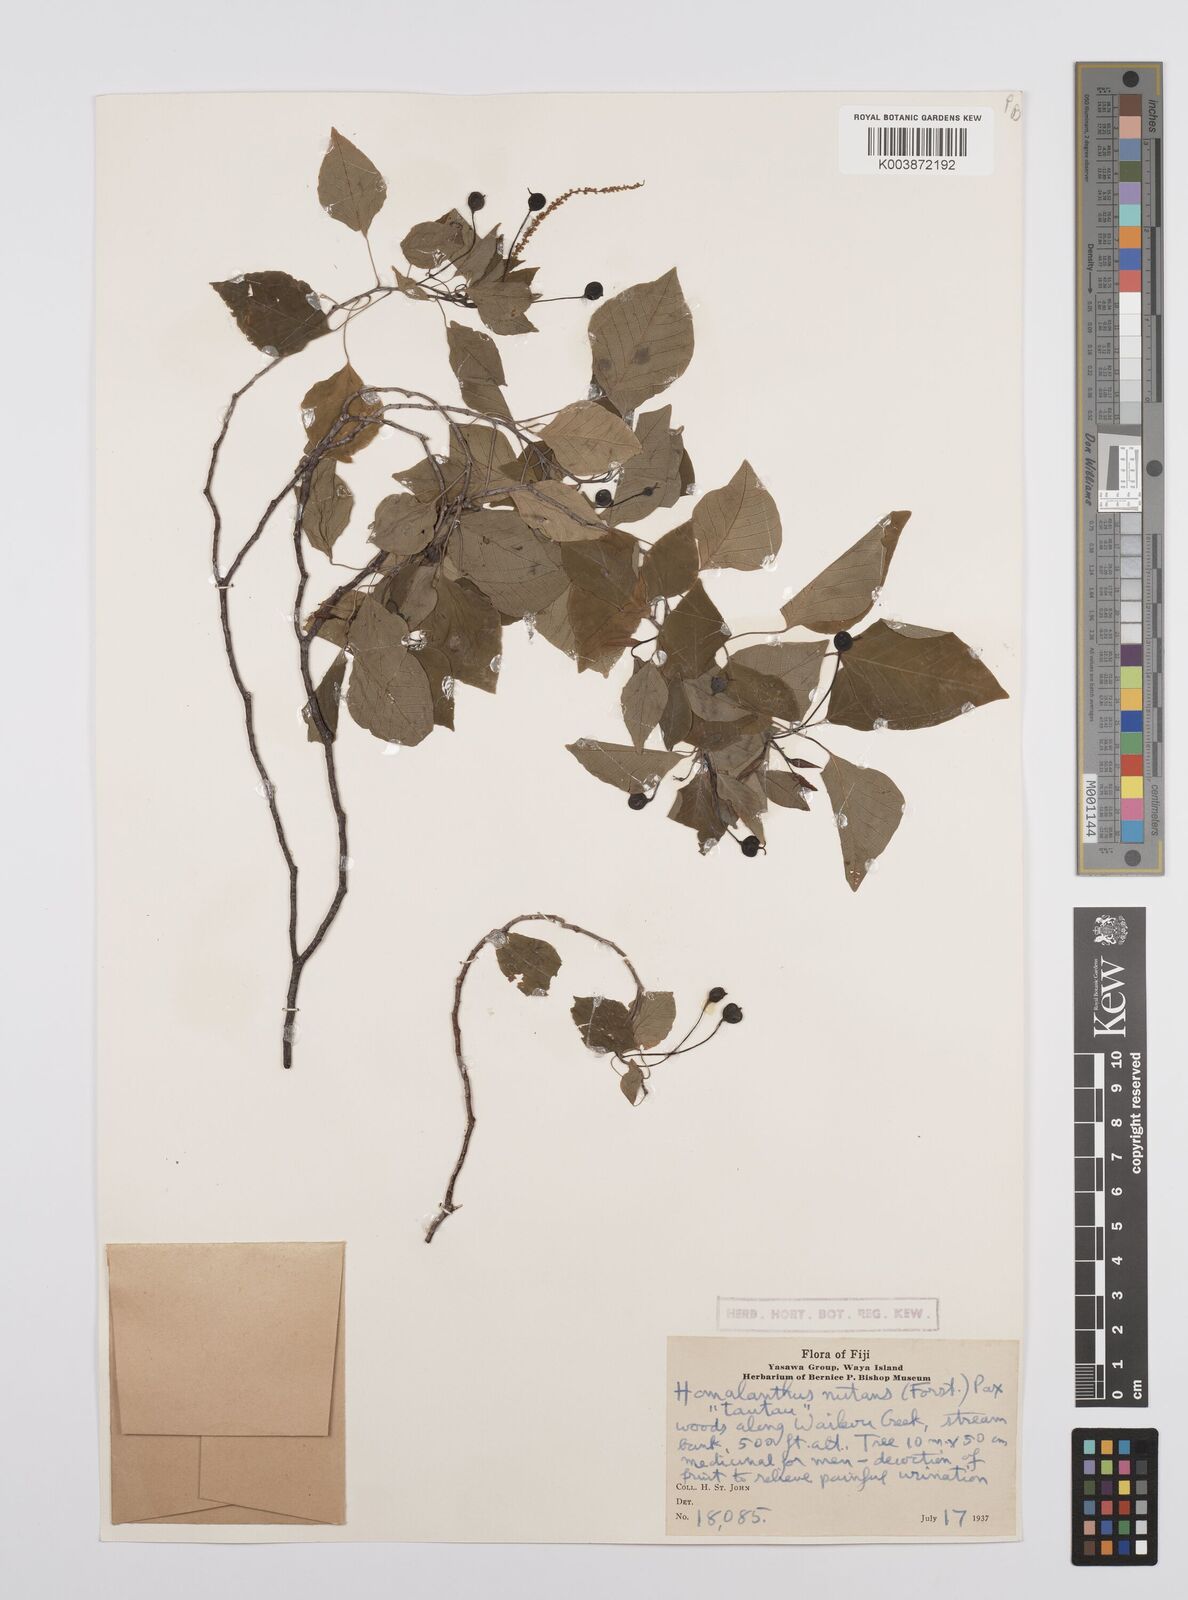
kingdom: Plantae
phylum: Tracheophyta
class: Magnoliopsida
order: Malpighiales
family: Euphorbiaceae
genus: Homalanthus
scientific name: Homalanthus nutans
